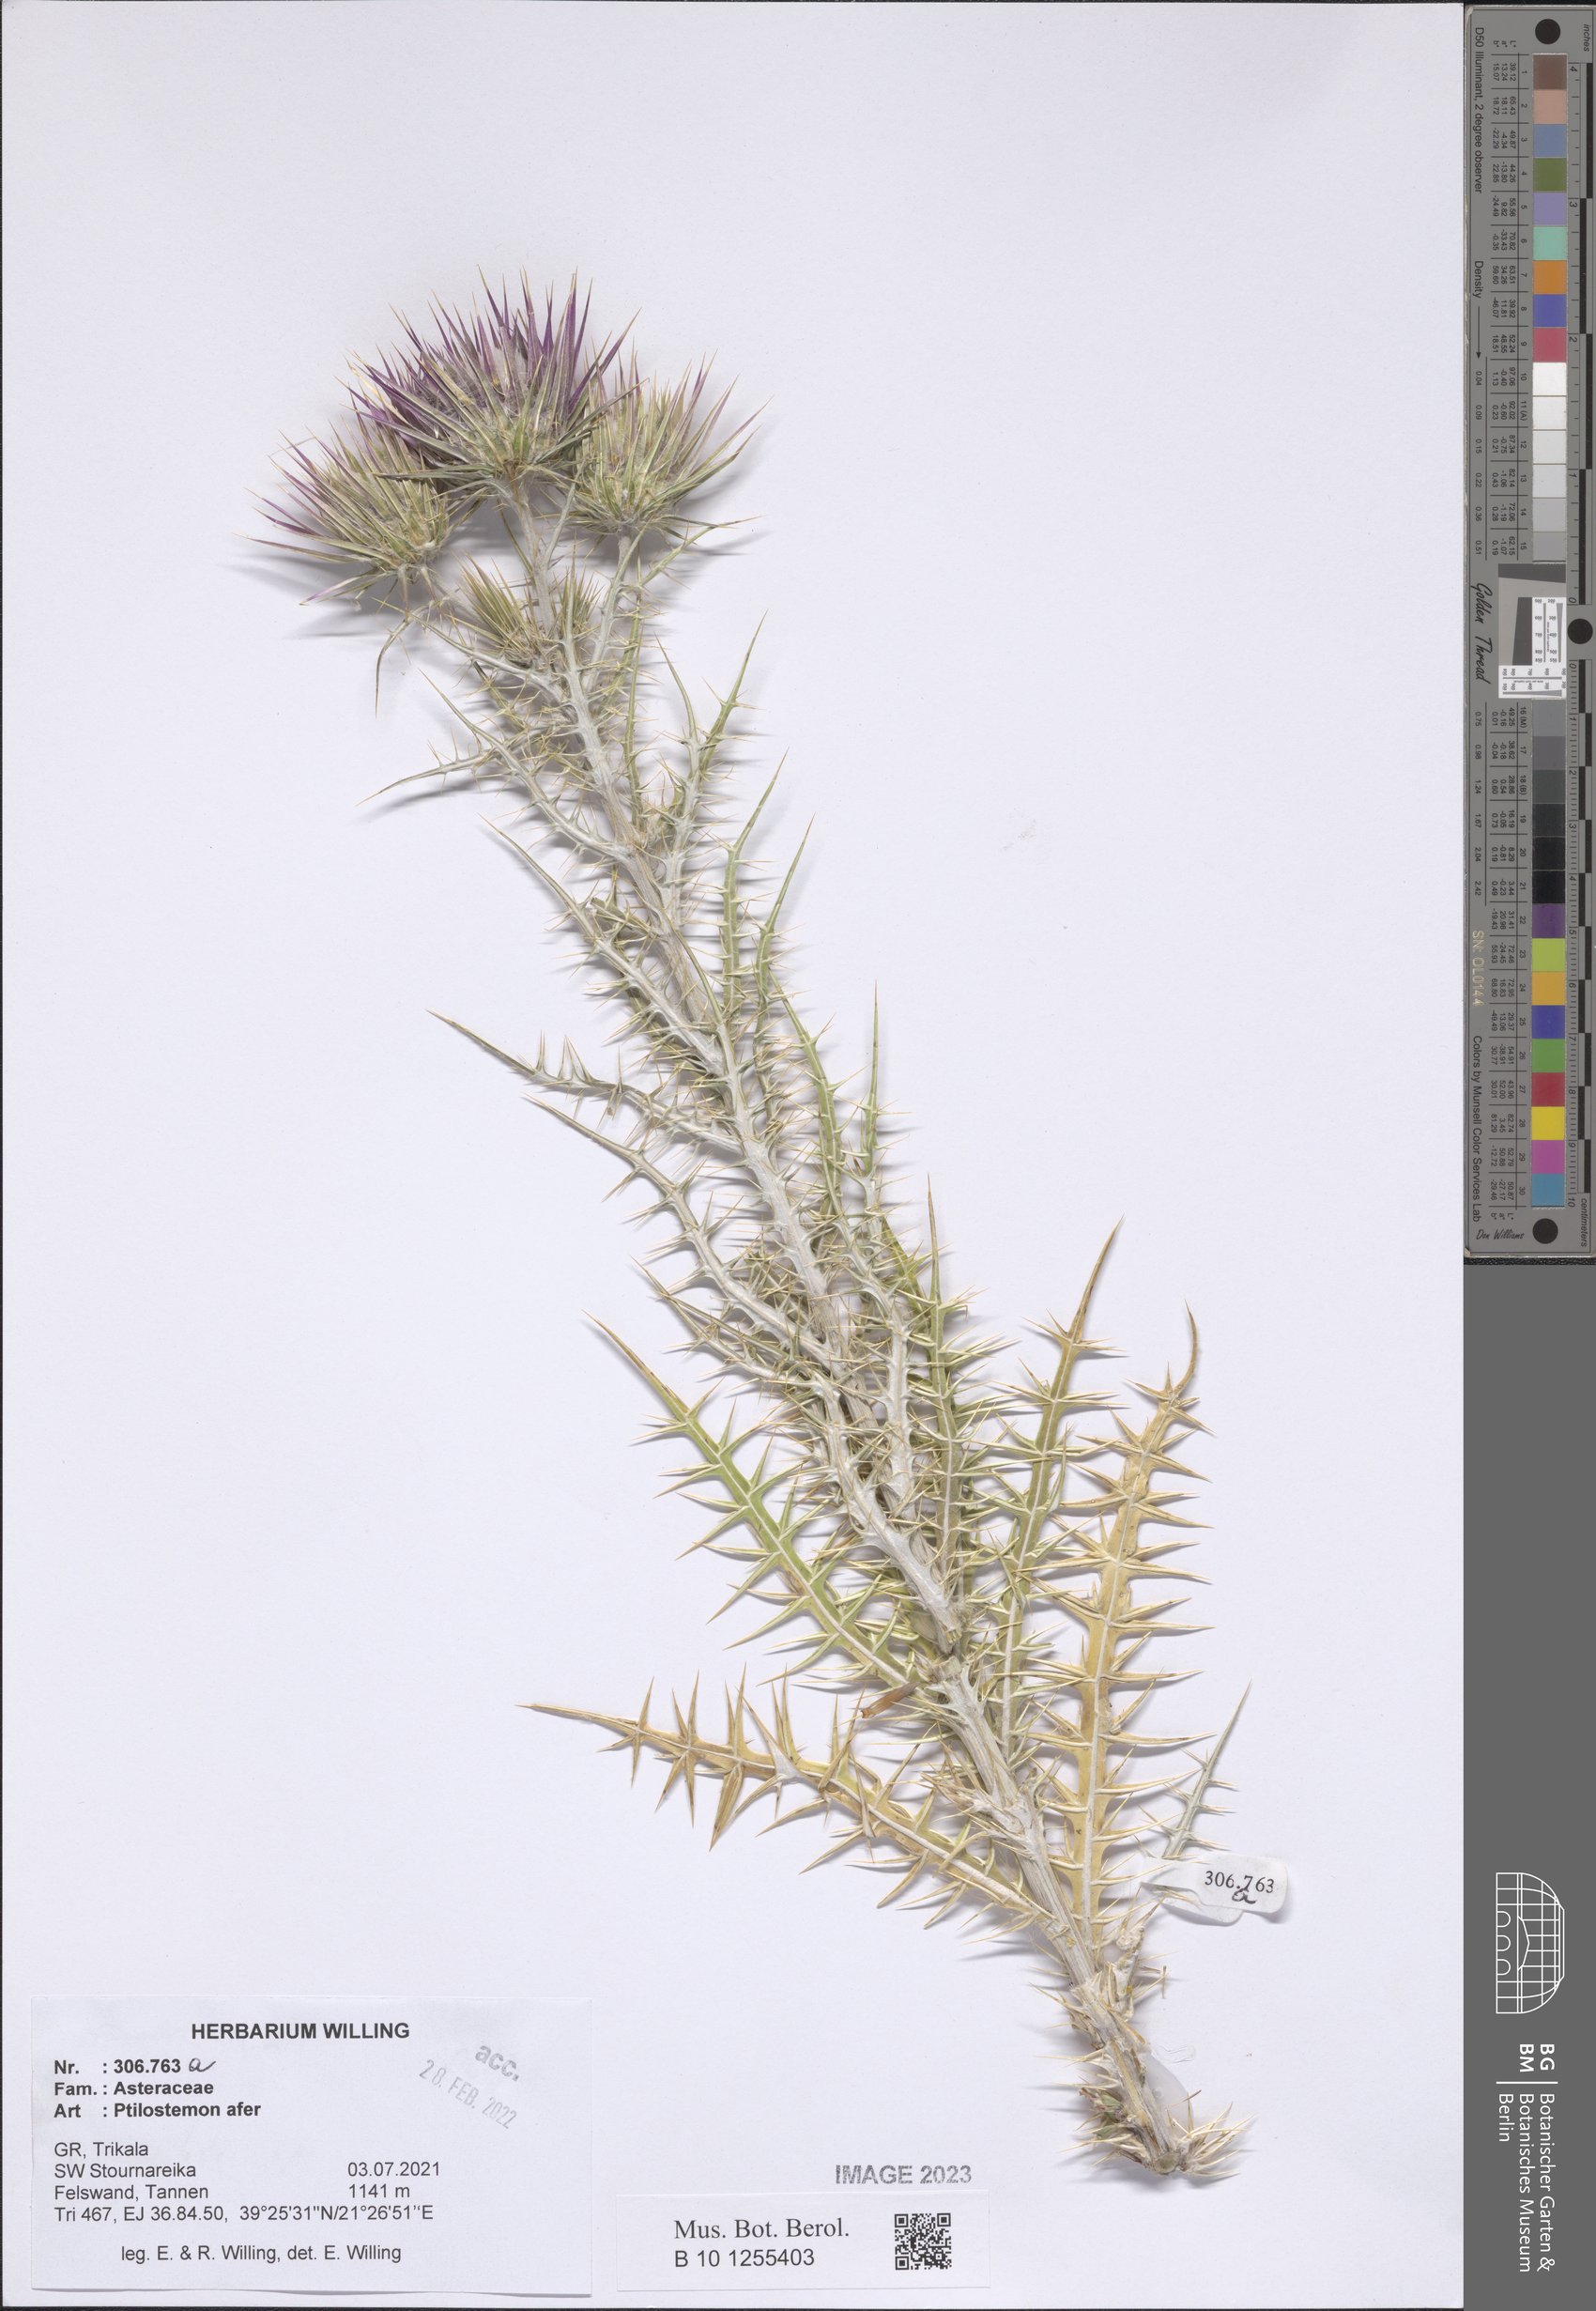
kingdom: Plantae
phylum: Tracheophyta
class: Magnoliopsida
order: Asterales
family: Asteraceae
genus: Ptilostemon
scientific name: Ptilostemon afer
